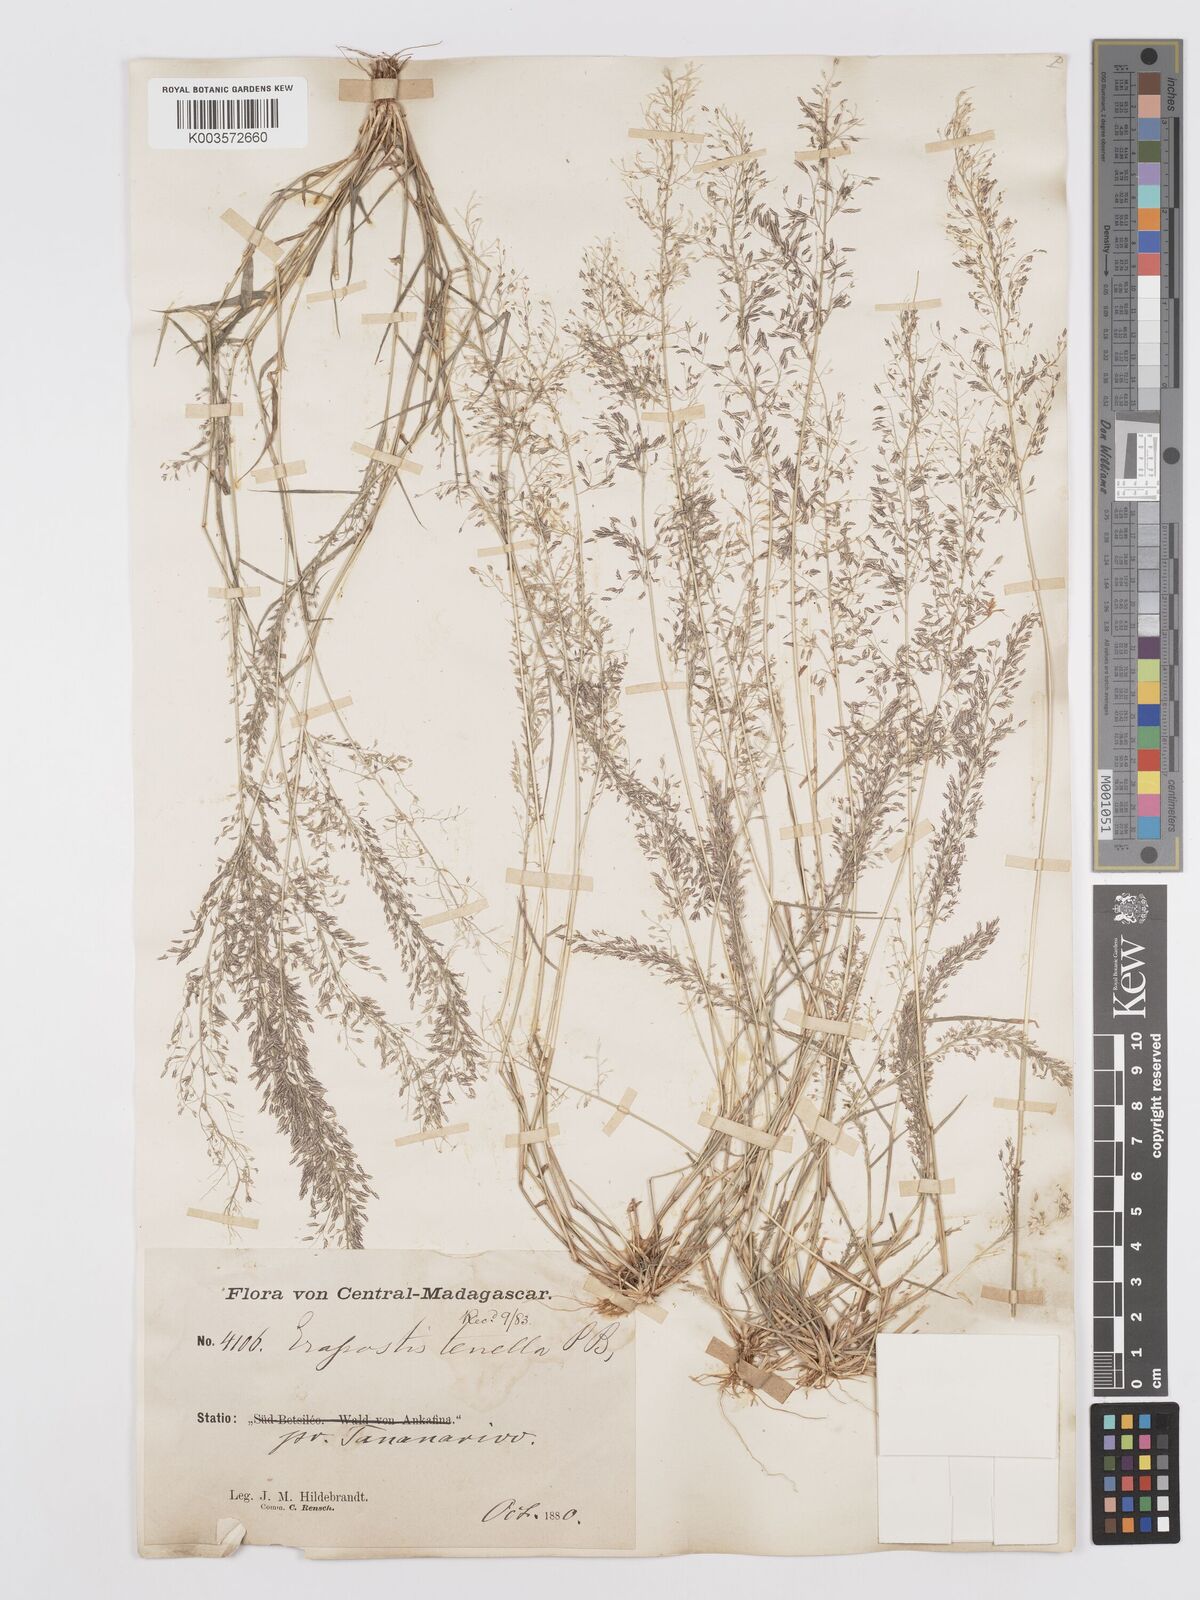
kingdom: Plantae
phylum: Tracheophyta
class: Liliopsida
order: Poales
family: Poaceae
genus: Eragrostis
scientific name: Eragrostis tenella
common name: Japanese lovegrass
